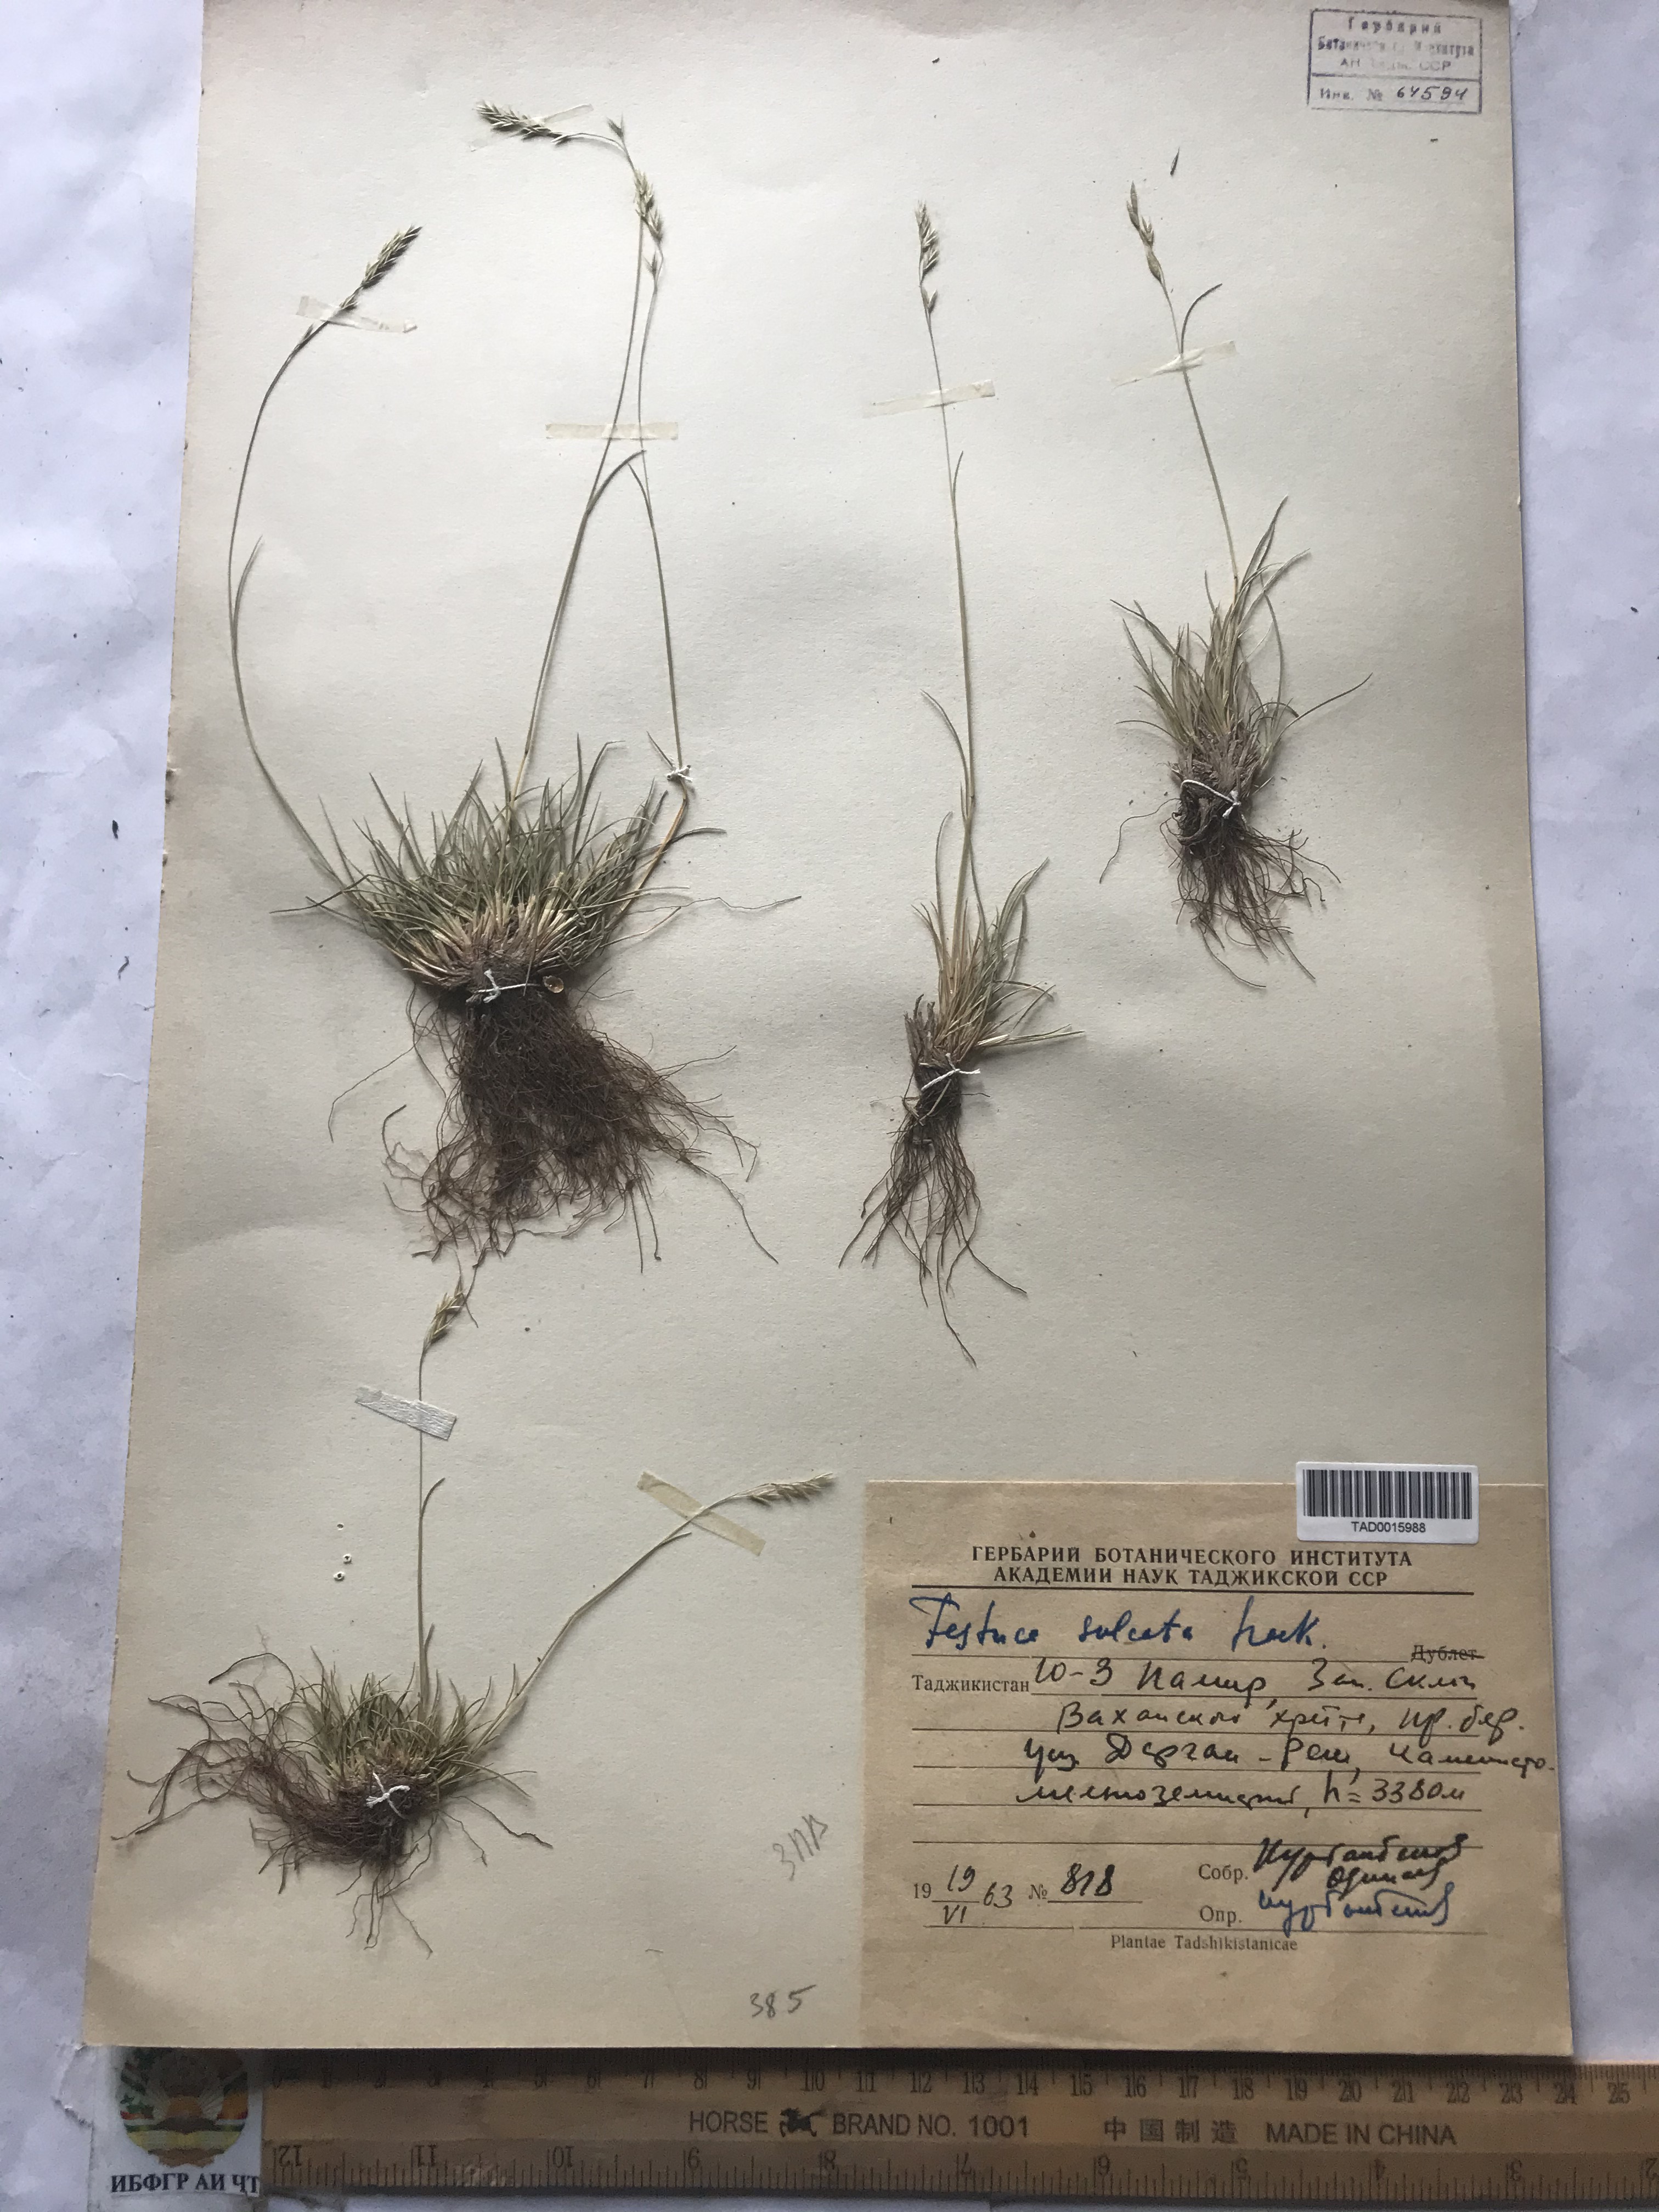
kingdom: Plantae
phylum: Tracheophyta
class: Liliopsida
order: Poales
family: Poaceae
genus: Festuca
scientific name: Festuca sulcata
